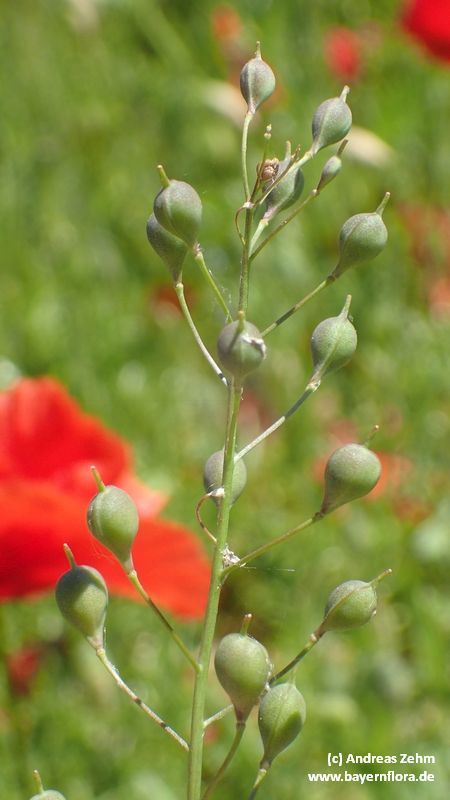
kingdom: Plantae
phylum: Tracheophyta
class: Magnoliopsida
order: Brassicales
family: Brassicaceae
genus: Camelina
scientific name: Camelina sativa
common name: Gold-of-pleasure
